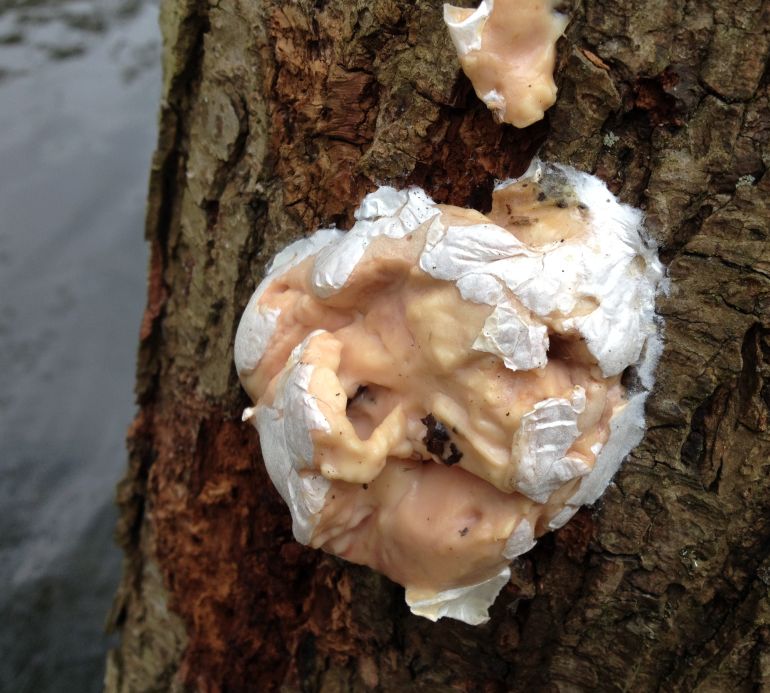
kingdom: Protozoa
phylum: Mycetozoa
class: Myxomycetes
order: Cribrariales
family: Tubiferaceae
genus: Reticularia
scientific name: Reticularia lycoperdon
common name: skinnende støvpude
